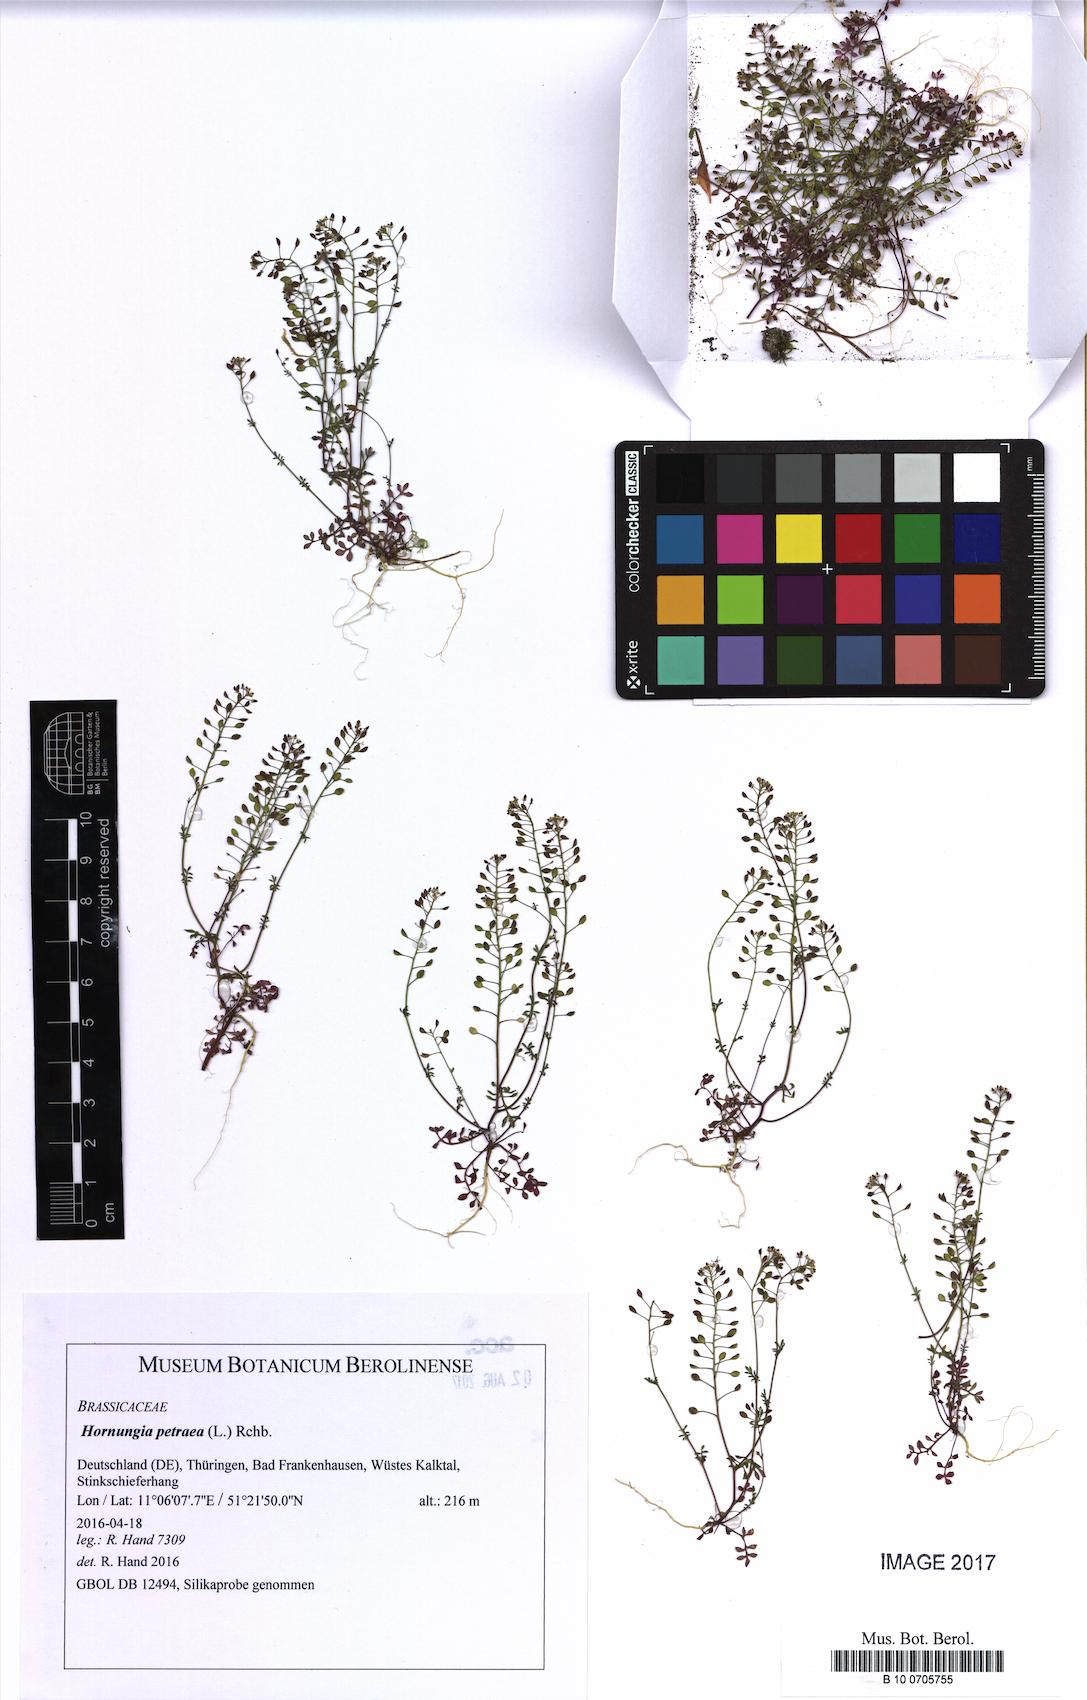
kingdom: Plantae
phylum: Tracheophyta
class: Magnoliopsida
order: Brassicales
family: Brassicaceae
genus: Hornungia
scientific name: Hornungia petraea
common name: Hutchinsia
